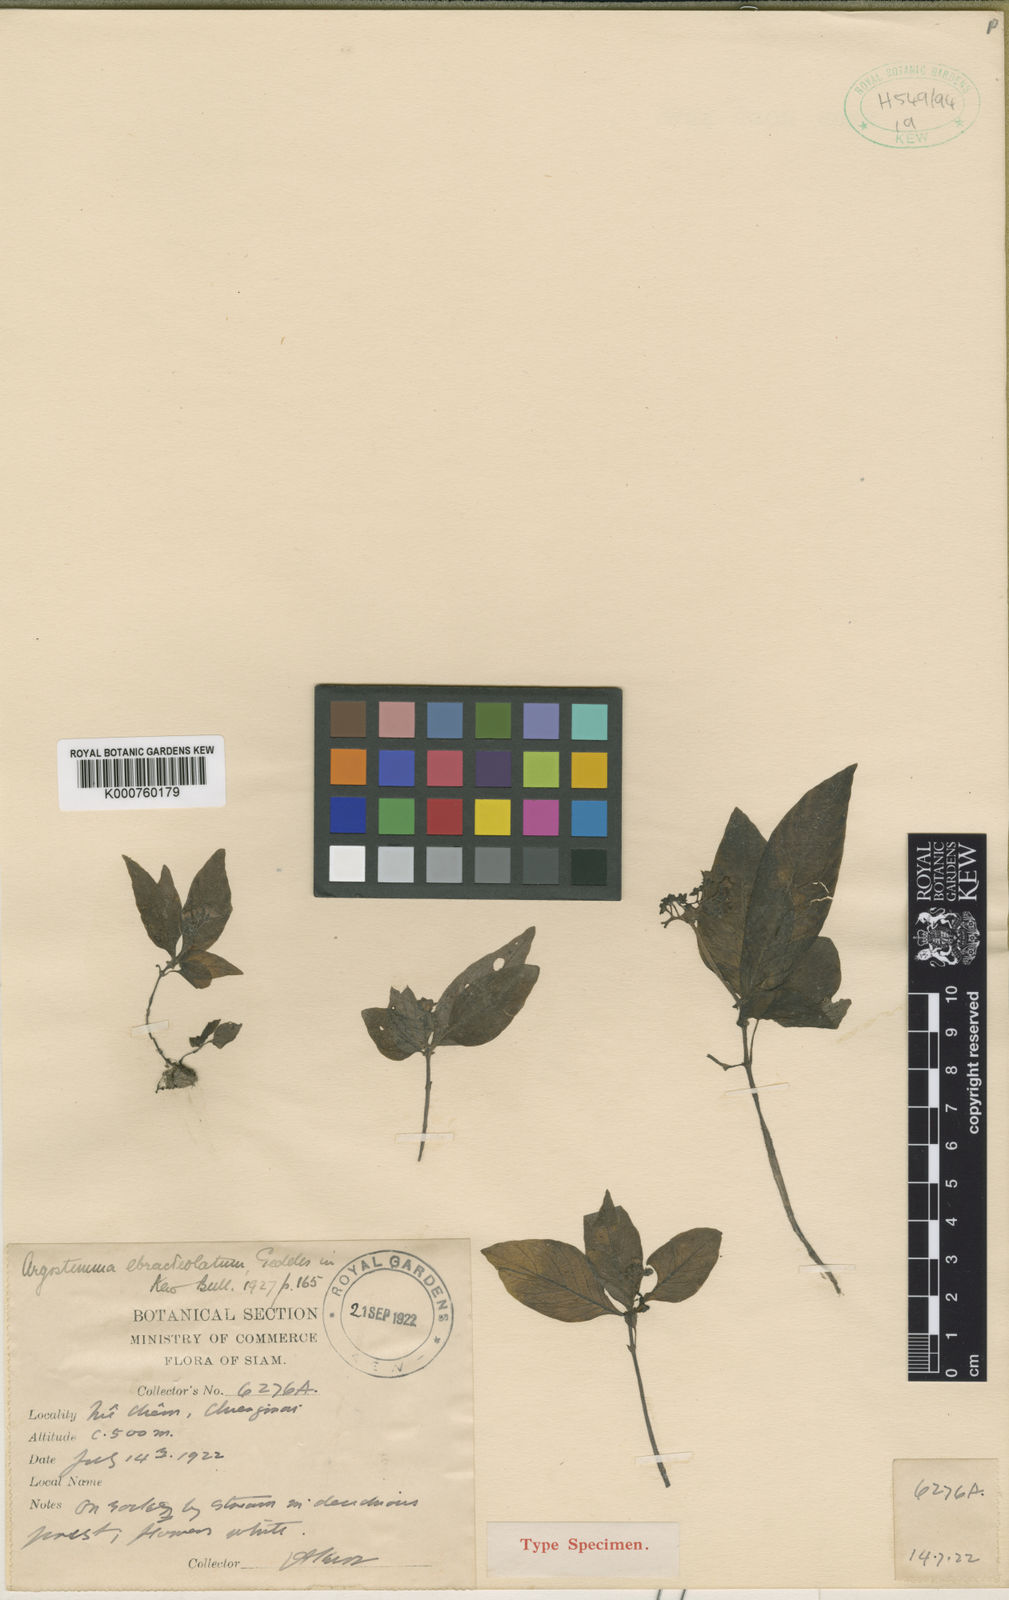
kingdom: Plantae
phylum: Tracheophyta
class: Magnoliopsida
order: Gentianales
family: Rubiaceae
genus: Argostemma
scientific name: Argostemma ebracteolatum
